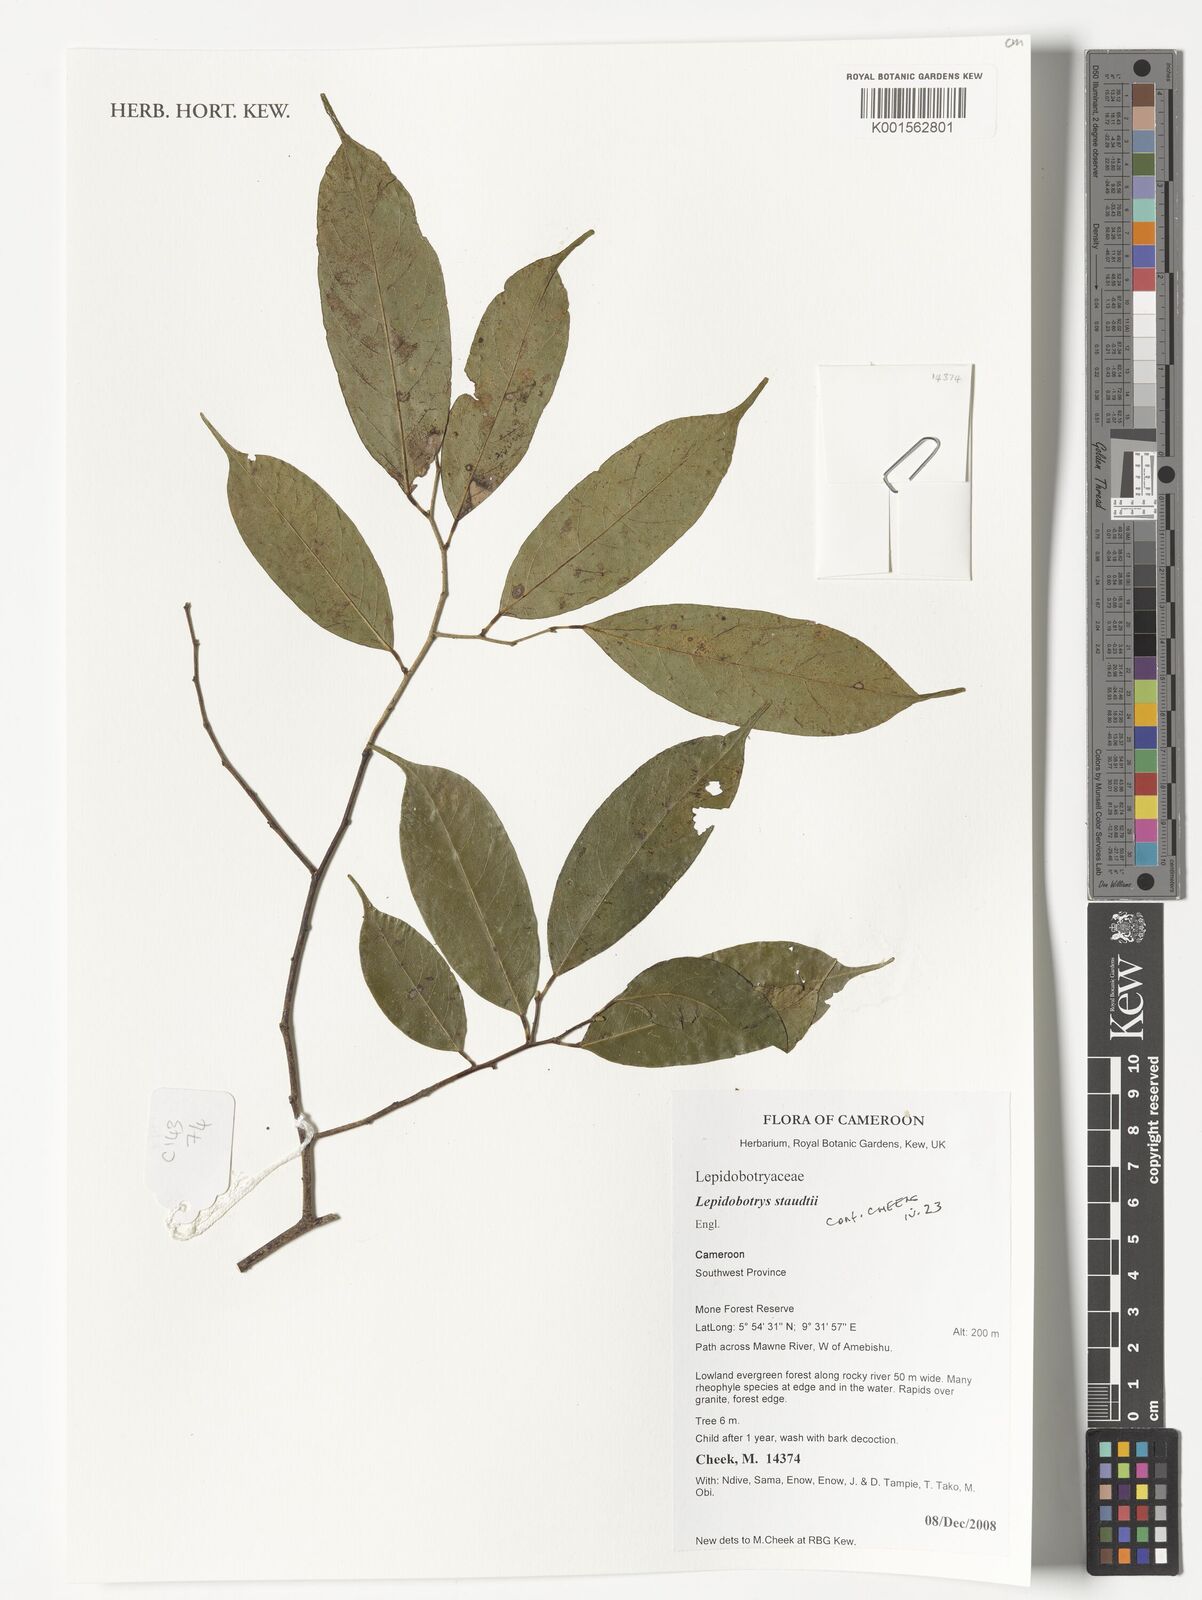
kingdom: Plantae
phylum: Tracheophyta
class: Magnoliopsida
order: Celastrales
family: Lepidobotryaceae
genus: Lepidobotrys
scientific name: Lepidobotrys staudtii
